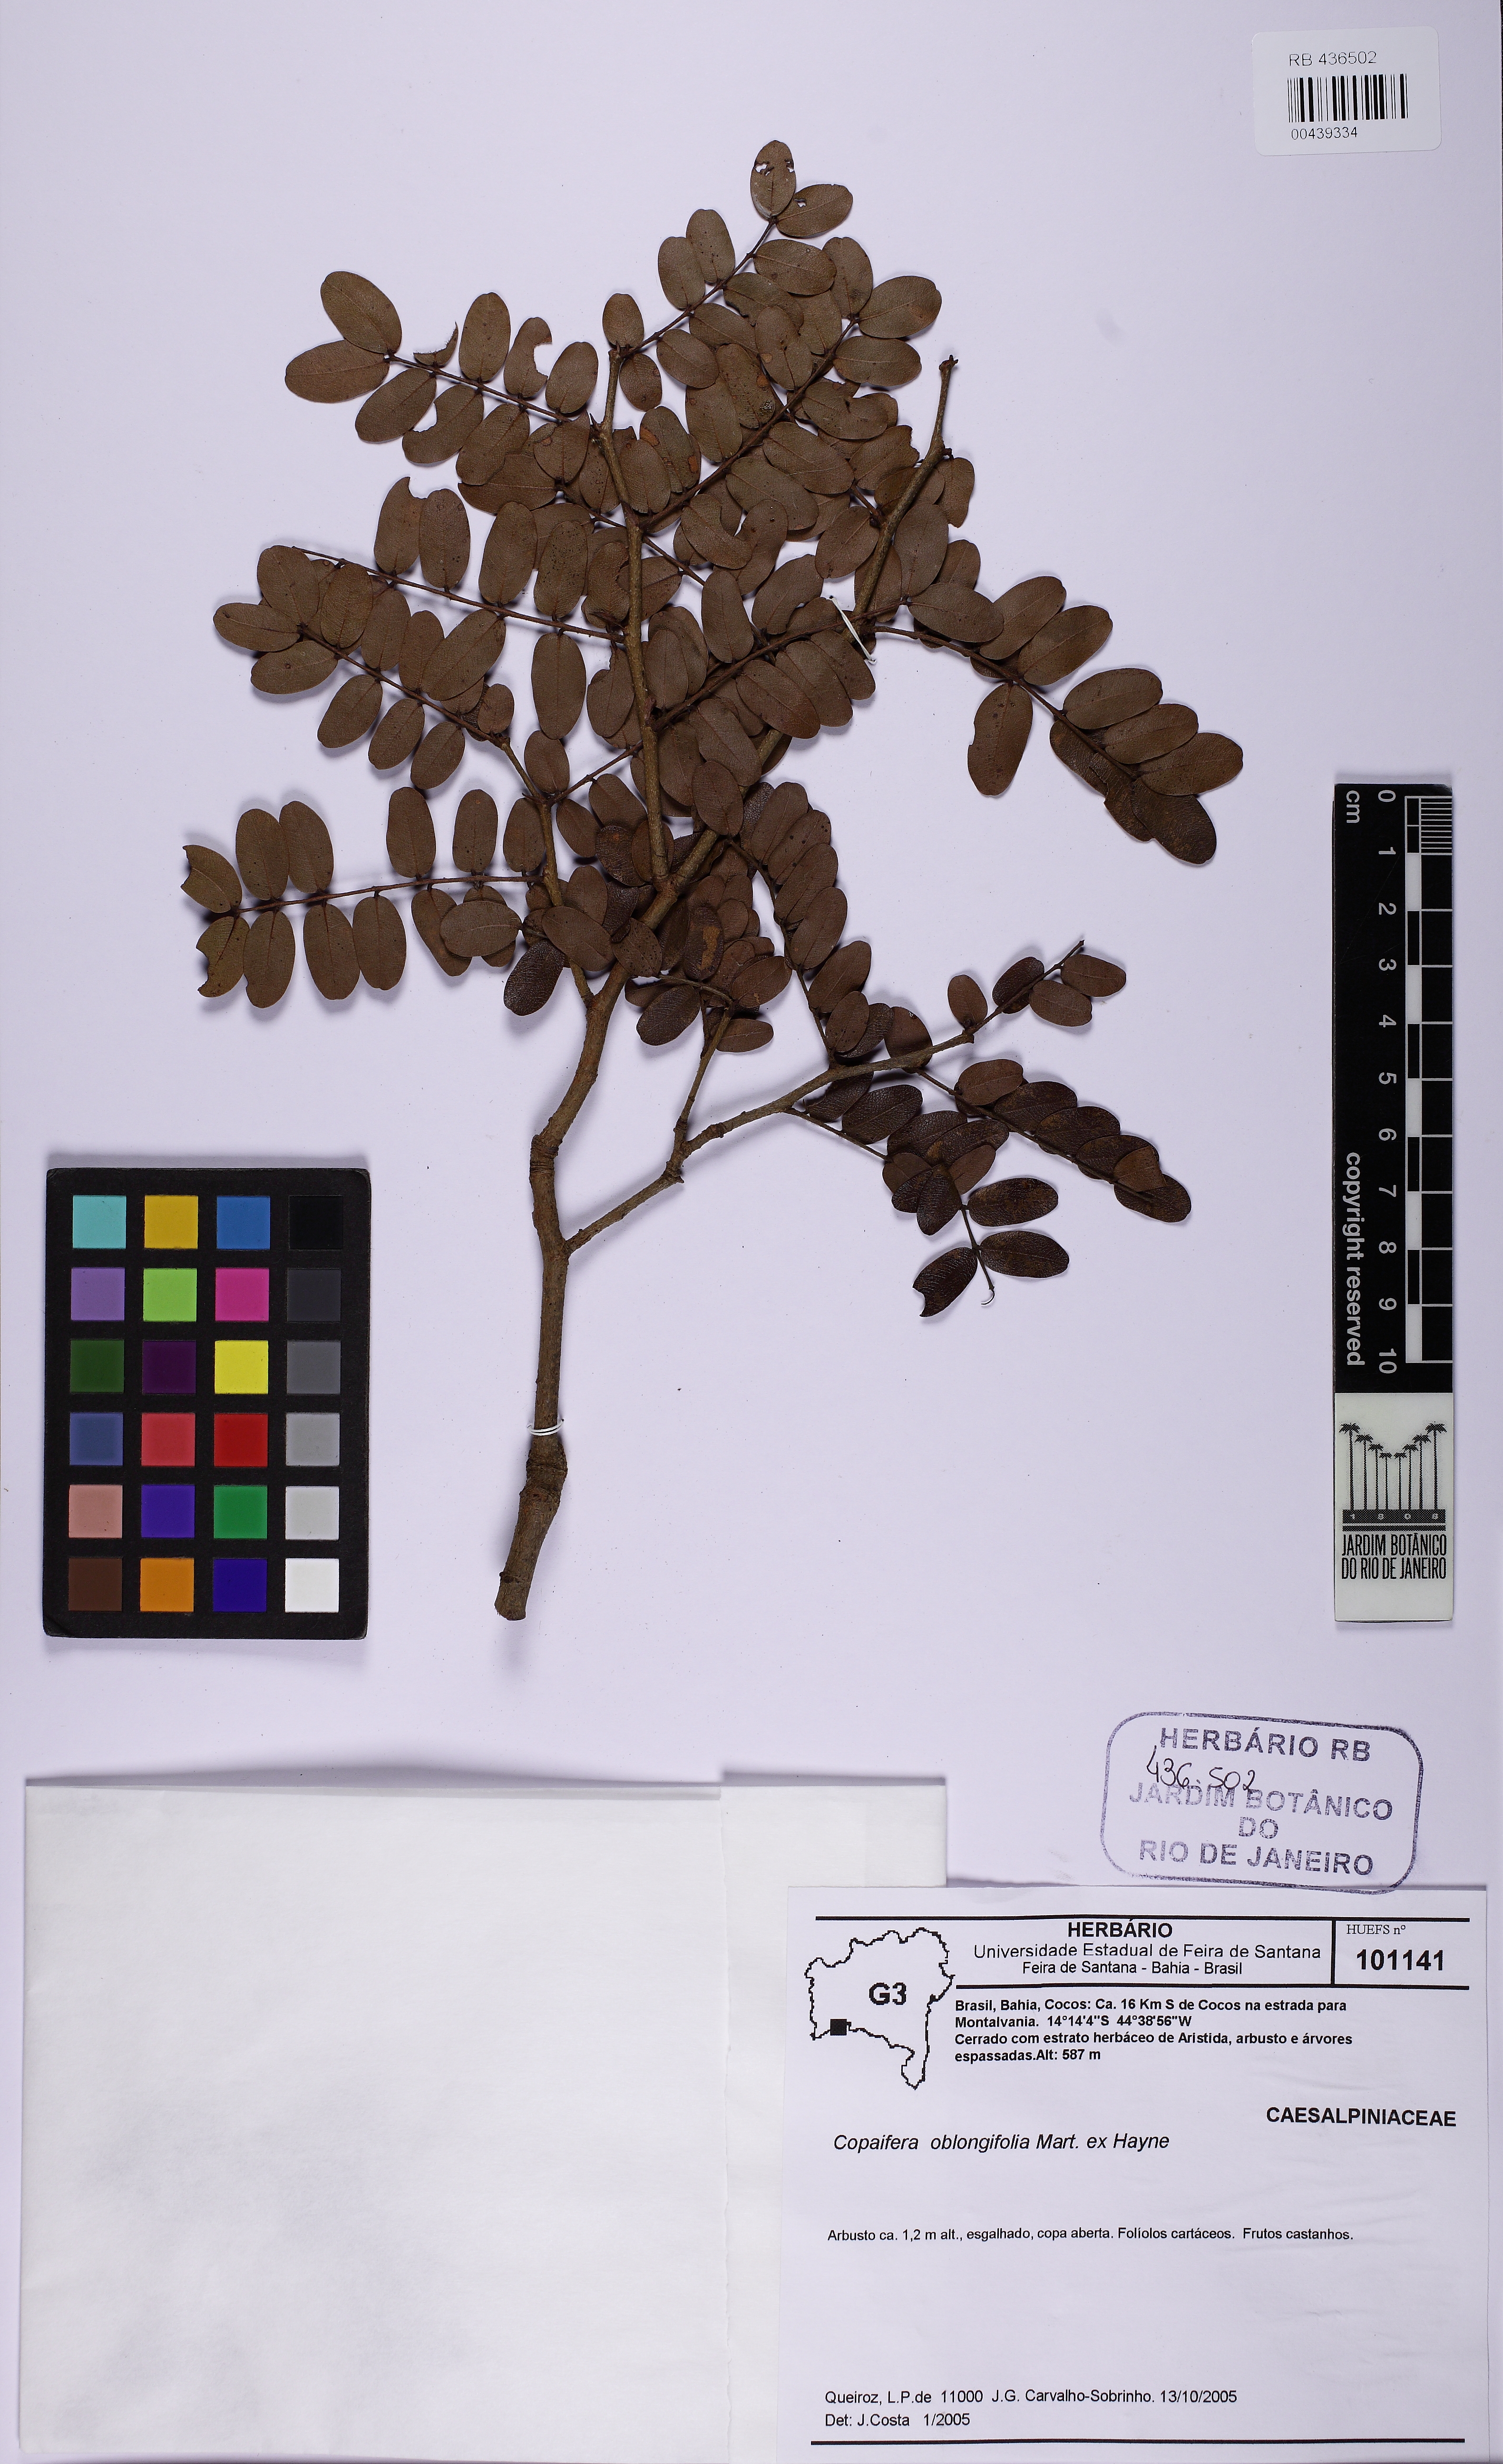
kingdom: Plantae
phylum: Tracheophyta
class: Magnoliopsida
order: Fabales
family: Fabaceae
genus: Copaifera
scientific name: Copaifera oblongifolia
